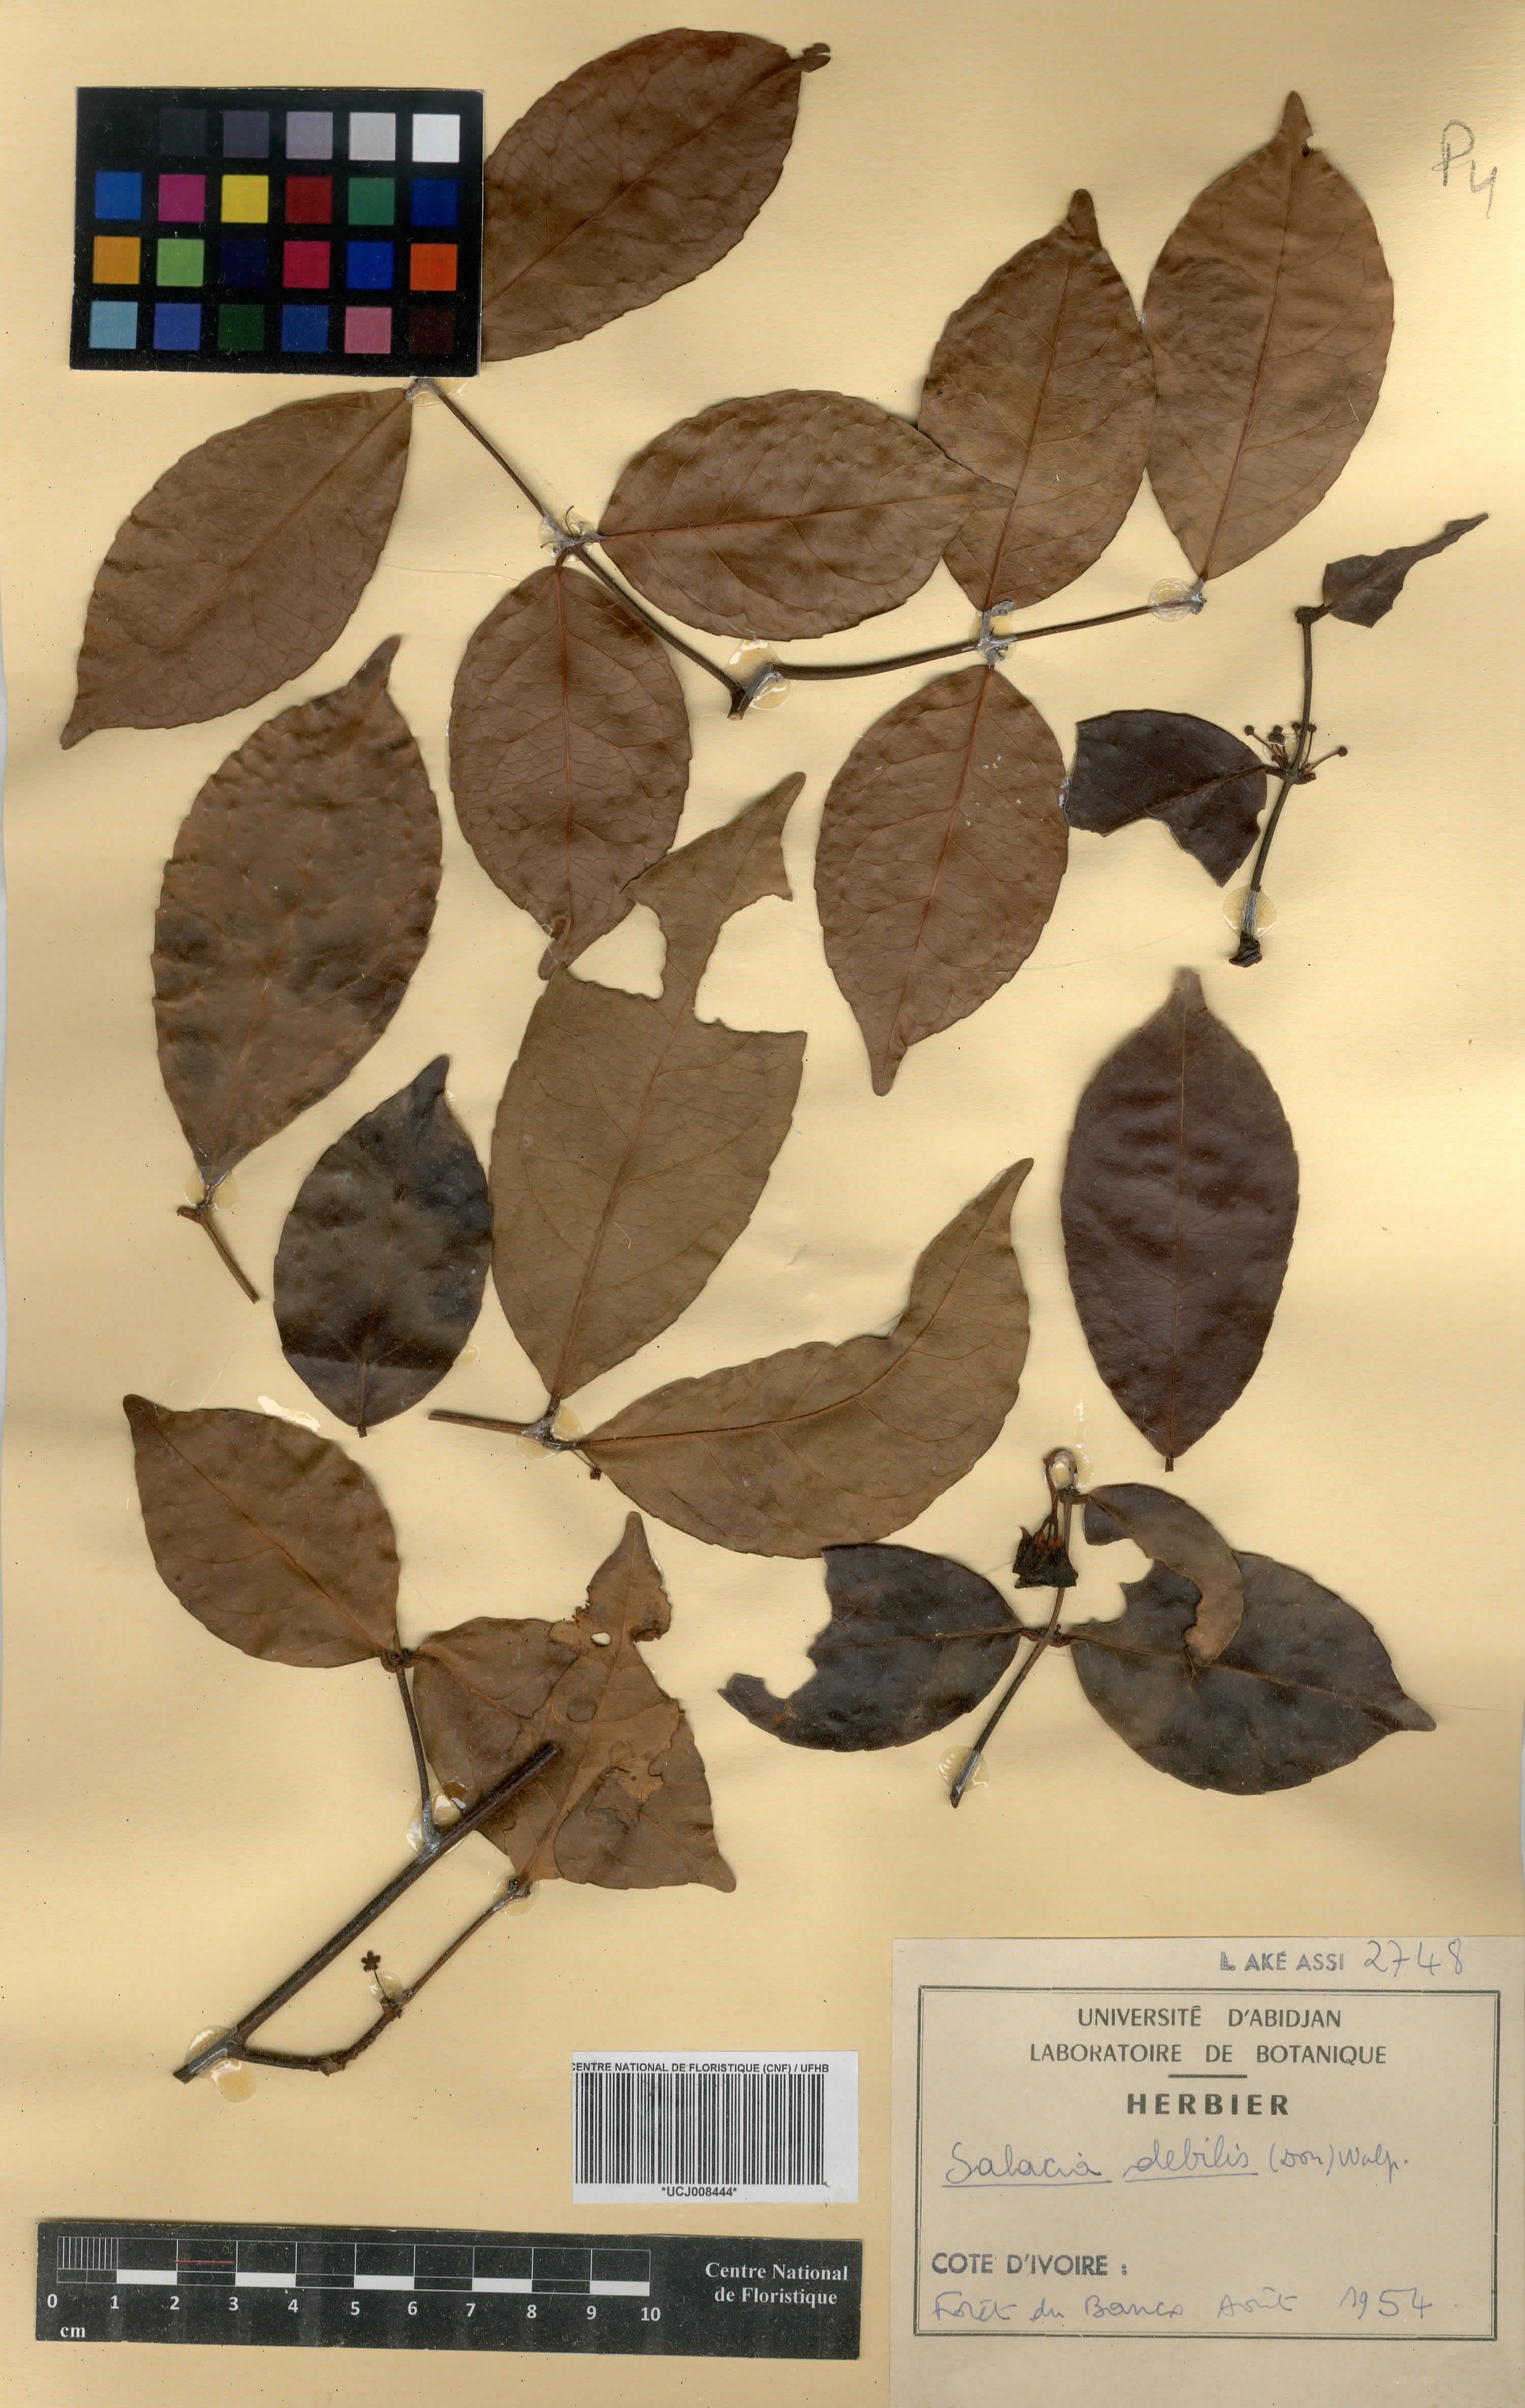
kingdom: Plantae
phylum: Tracheophyta
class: Magnoliopsida
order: Celastrales
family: Celastraceae
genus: Salacia
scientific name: Salacia debilis
